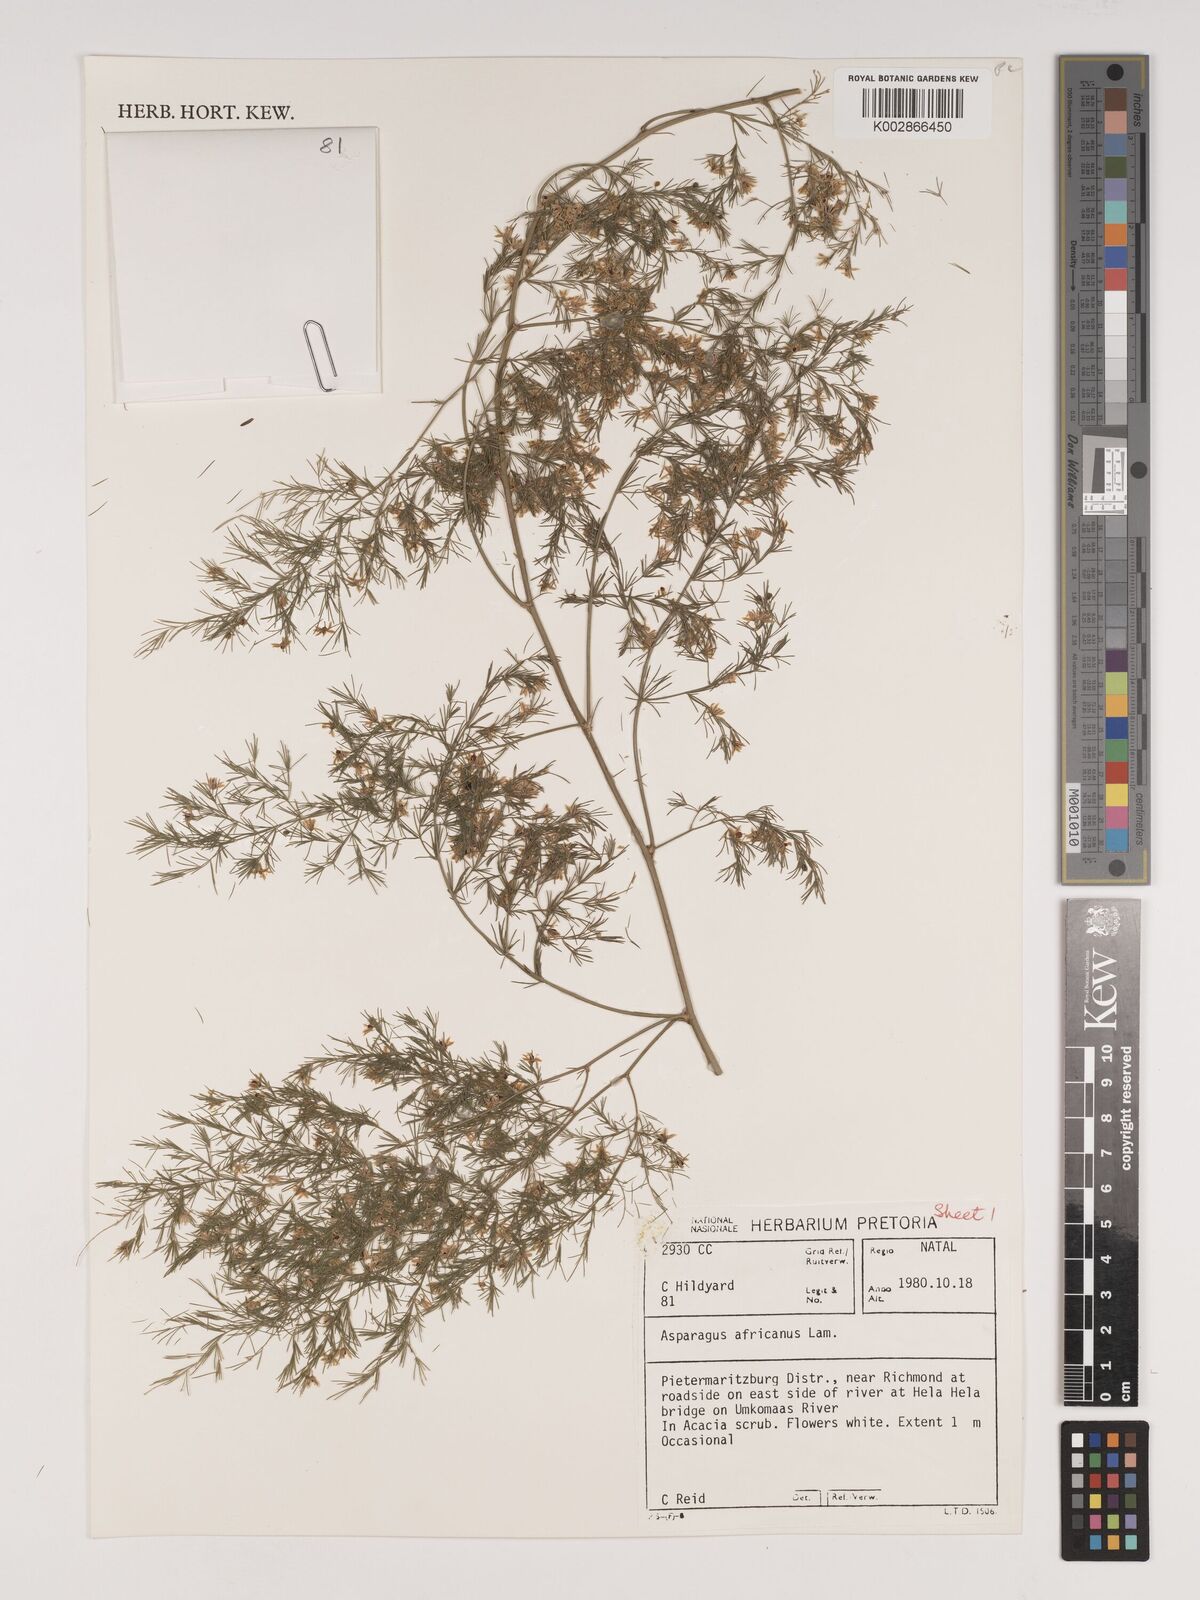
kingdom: Plantae
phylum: Tracheophyta
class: Liliopsida
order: Asparagales
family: Asparagaceae
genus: Asparagus
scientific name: Asparagus africanus
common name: Asparagus-fern
